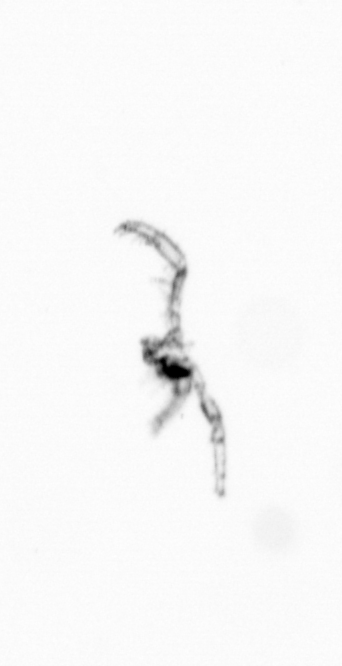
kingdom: Chromista
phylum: Ochrophyta
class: Bacillariophyceae
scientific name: Bacillariophyceae
